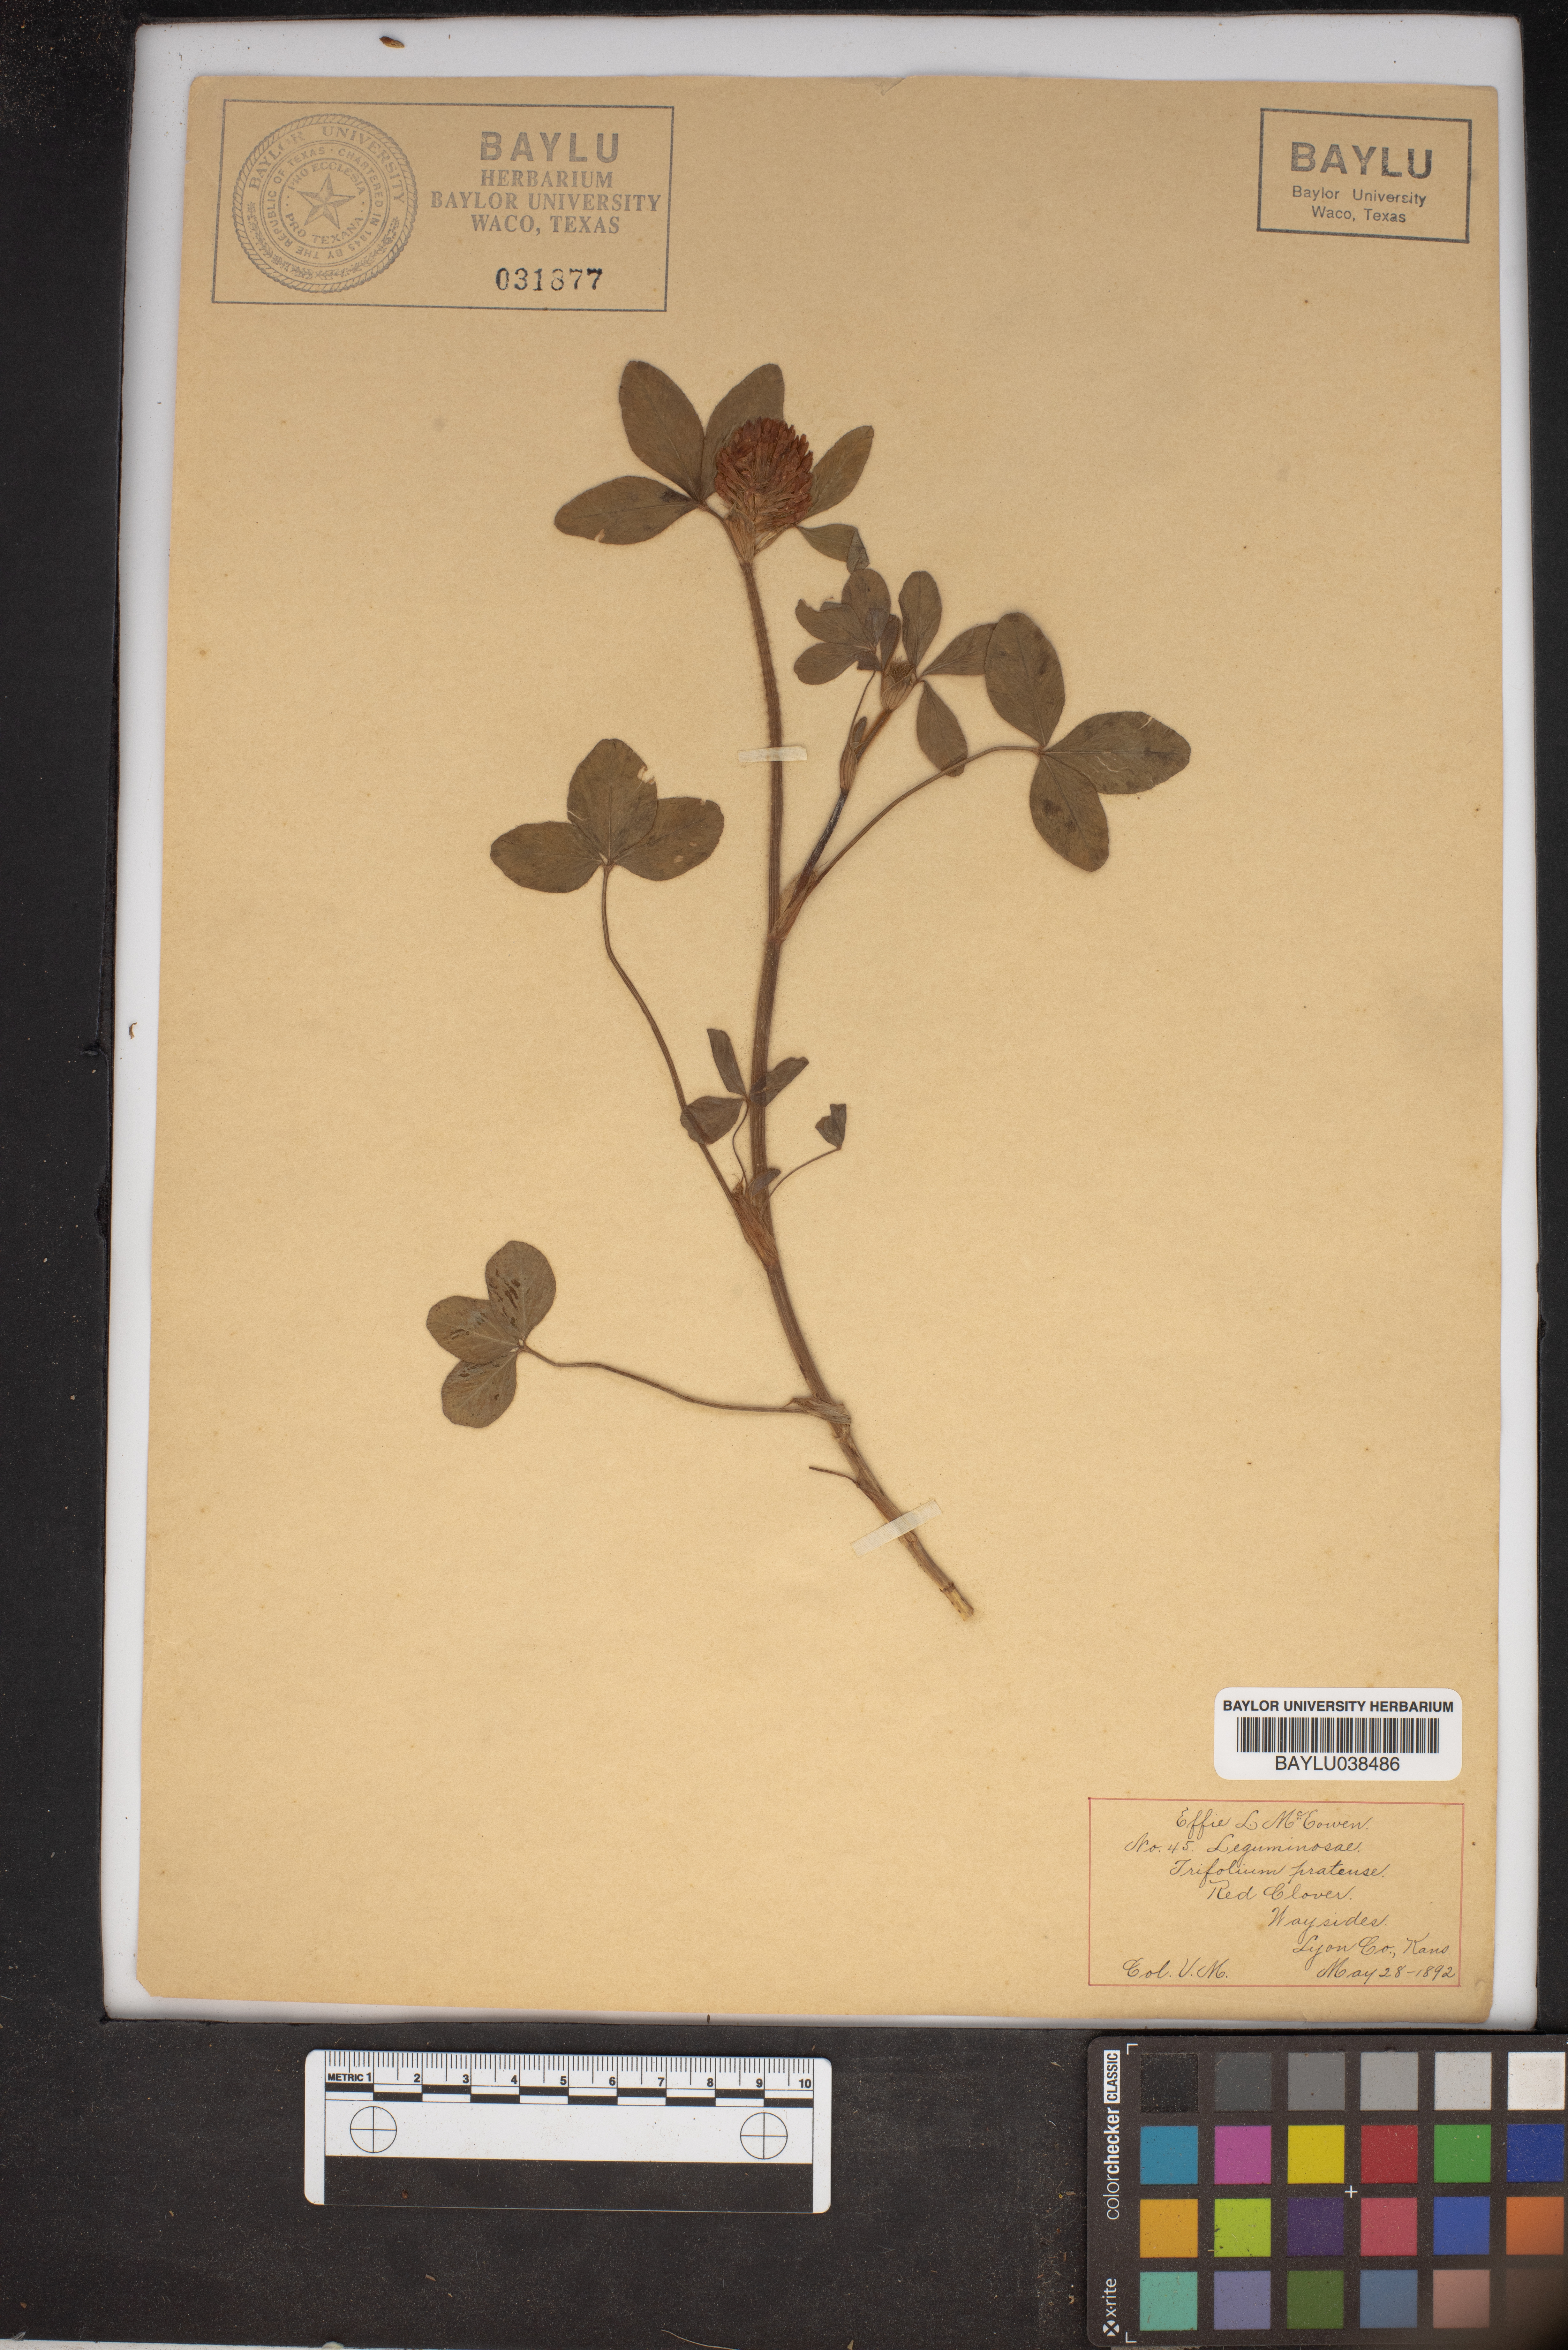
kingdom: Plantae
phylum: Tracheophyta
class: Magnoliopsida
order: Fabales
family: Fabaceae
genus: Trifolium
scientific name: Trifolium pratense
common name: Red clover
